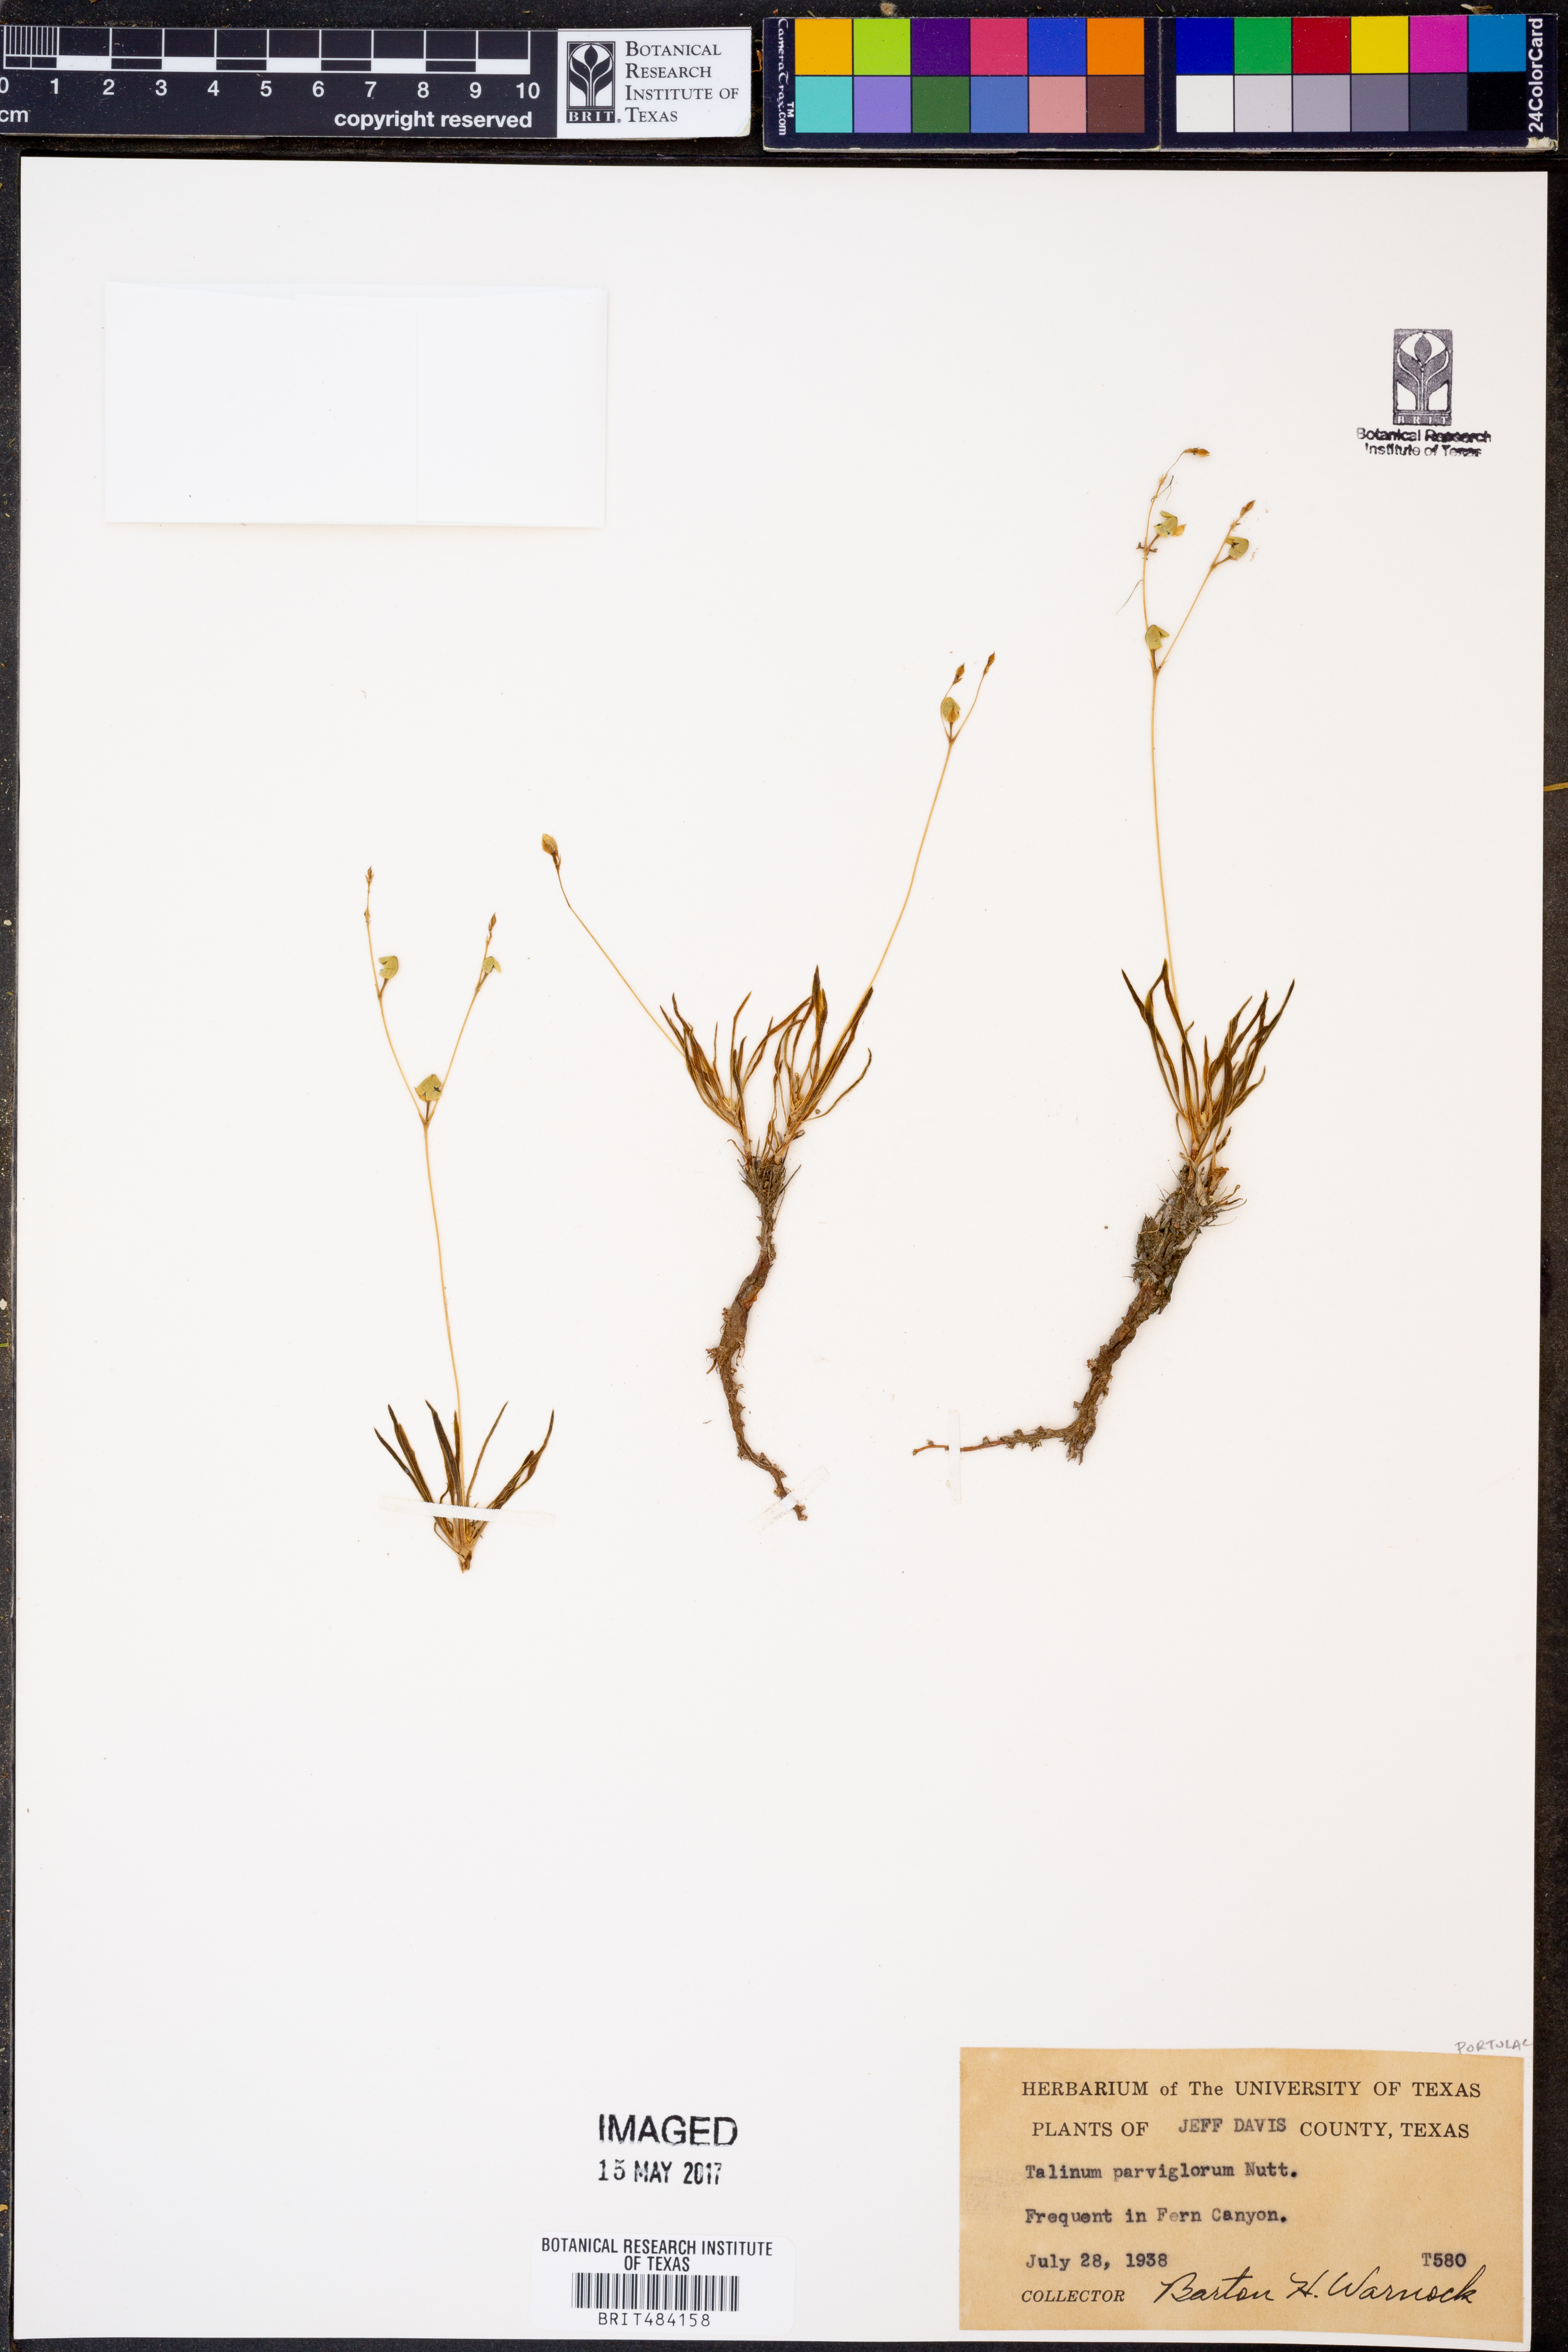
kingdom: Plantae
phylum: Tracheophyta
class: Magnoliopsida
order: Caryophyllales
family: Montiaceae
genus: Phemeranthus
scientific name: Phemeranthus parviflorus
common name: Sunbright
